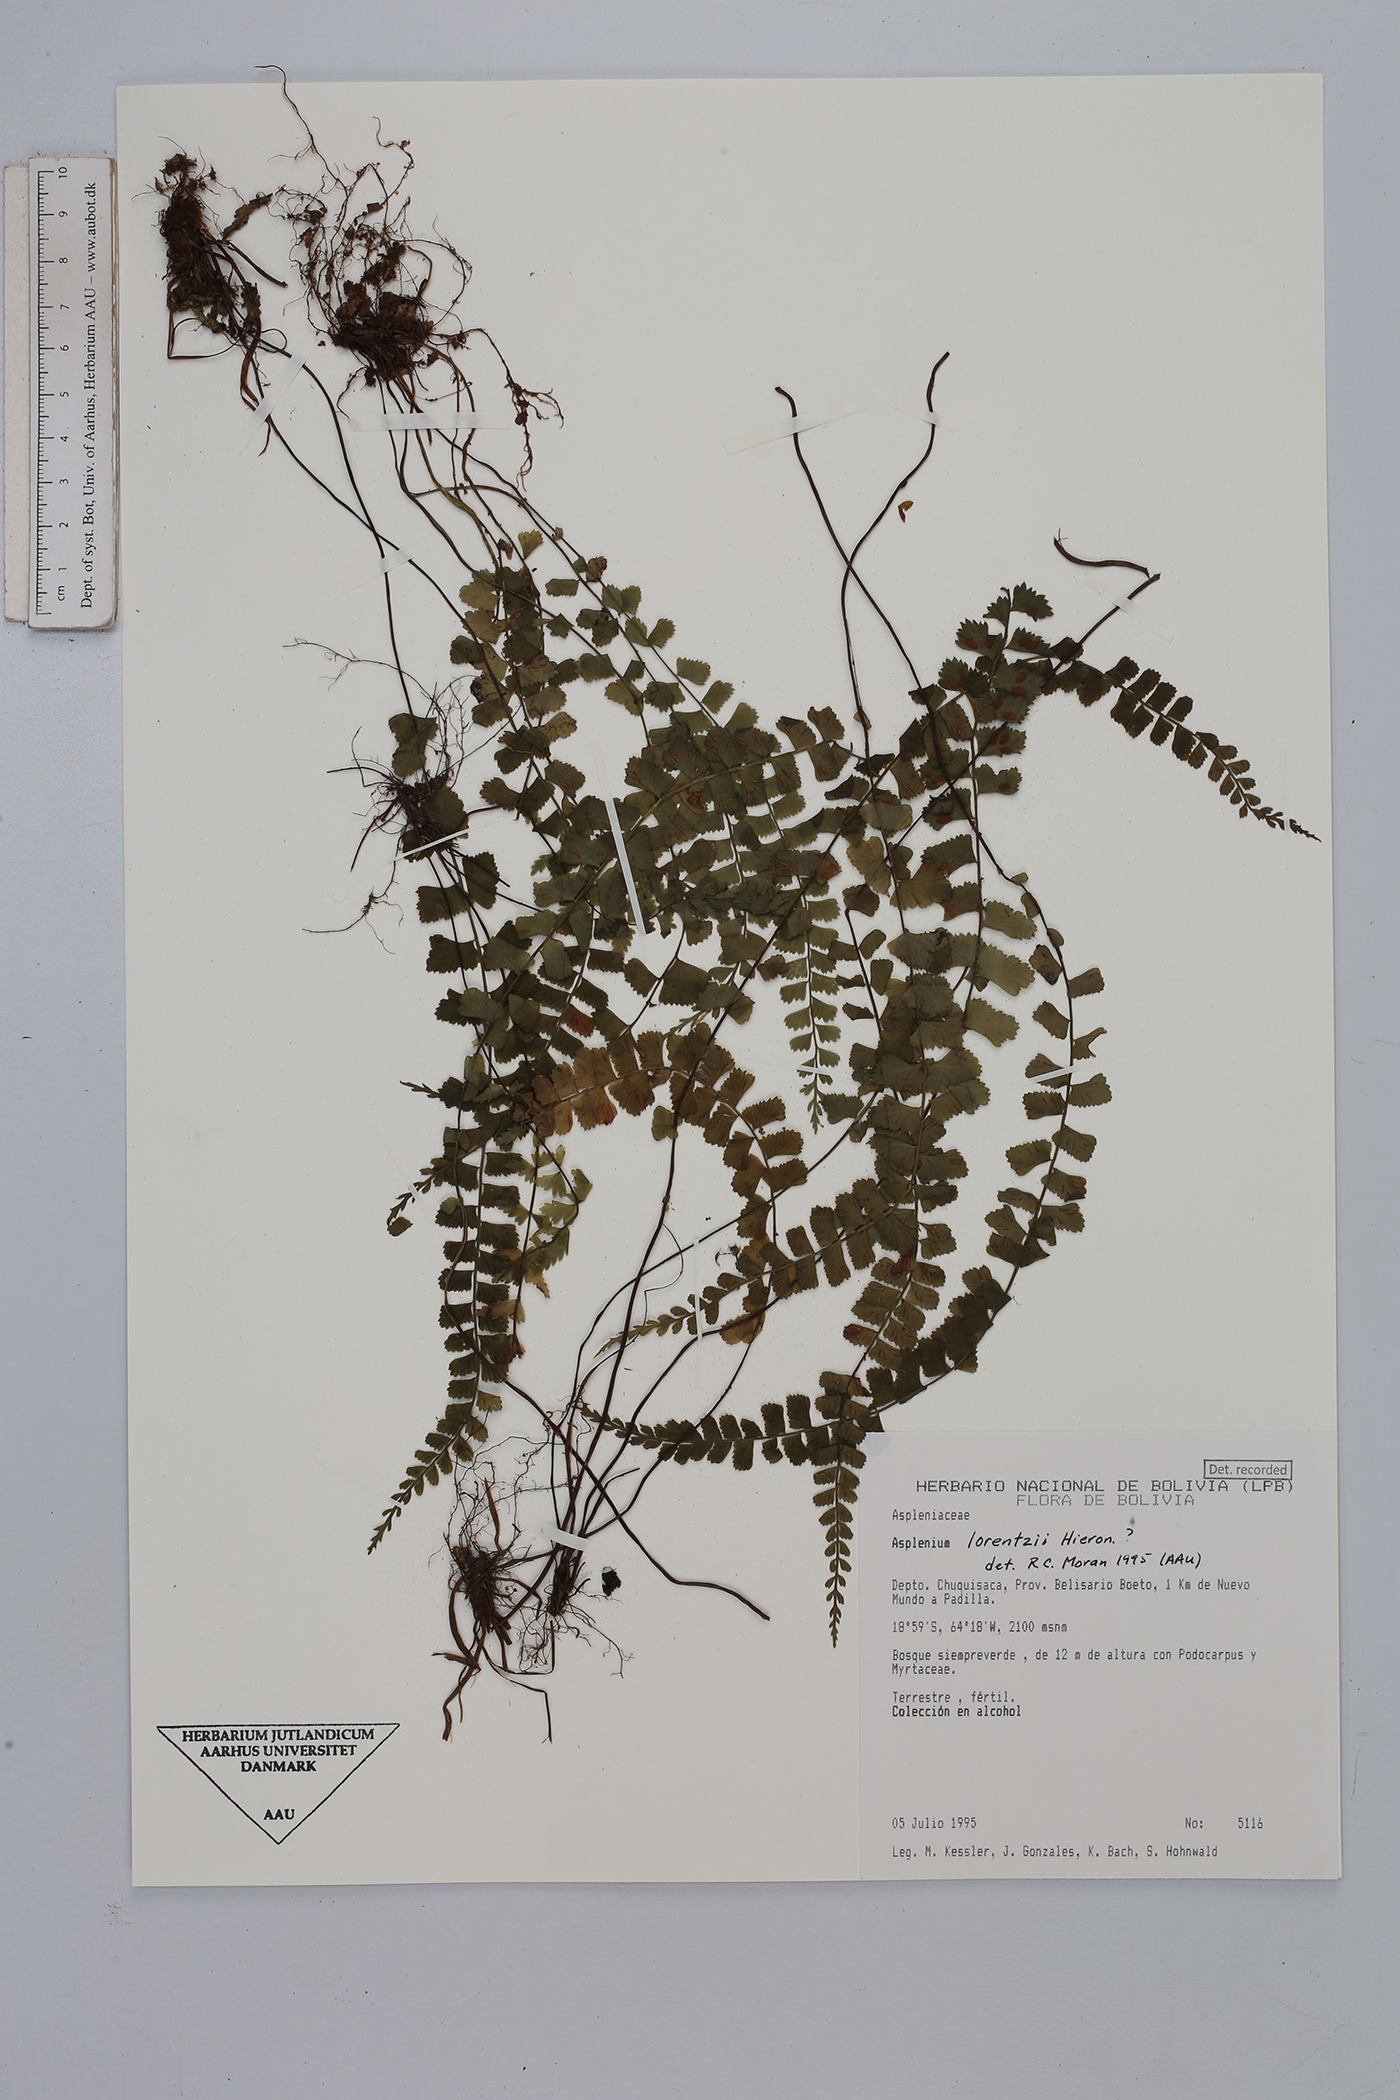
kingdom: Plantae
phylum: Tracheophyta
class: Polypodiopsida
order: Polypodiales
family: Aspleniaceae
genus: Asplenium
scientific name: Asplenium lorentzii
